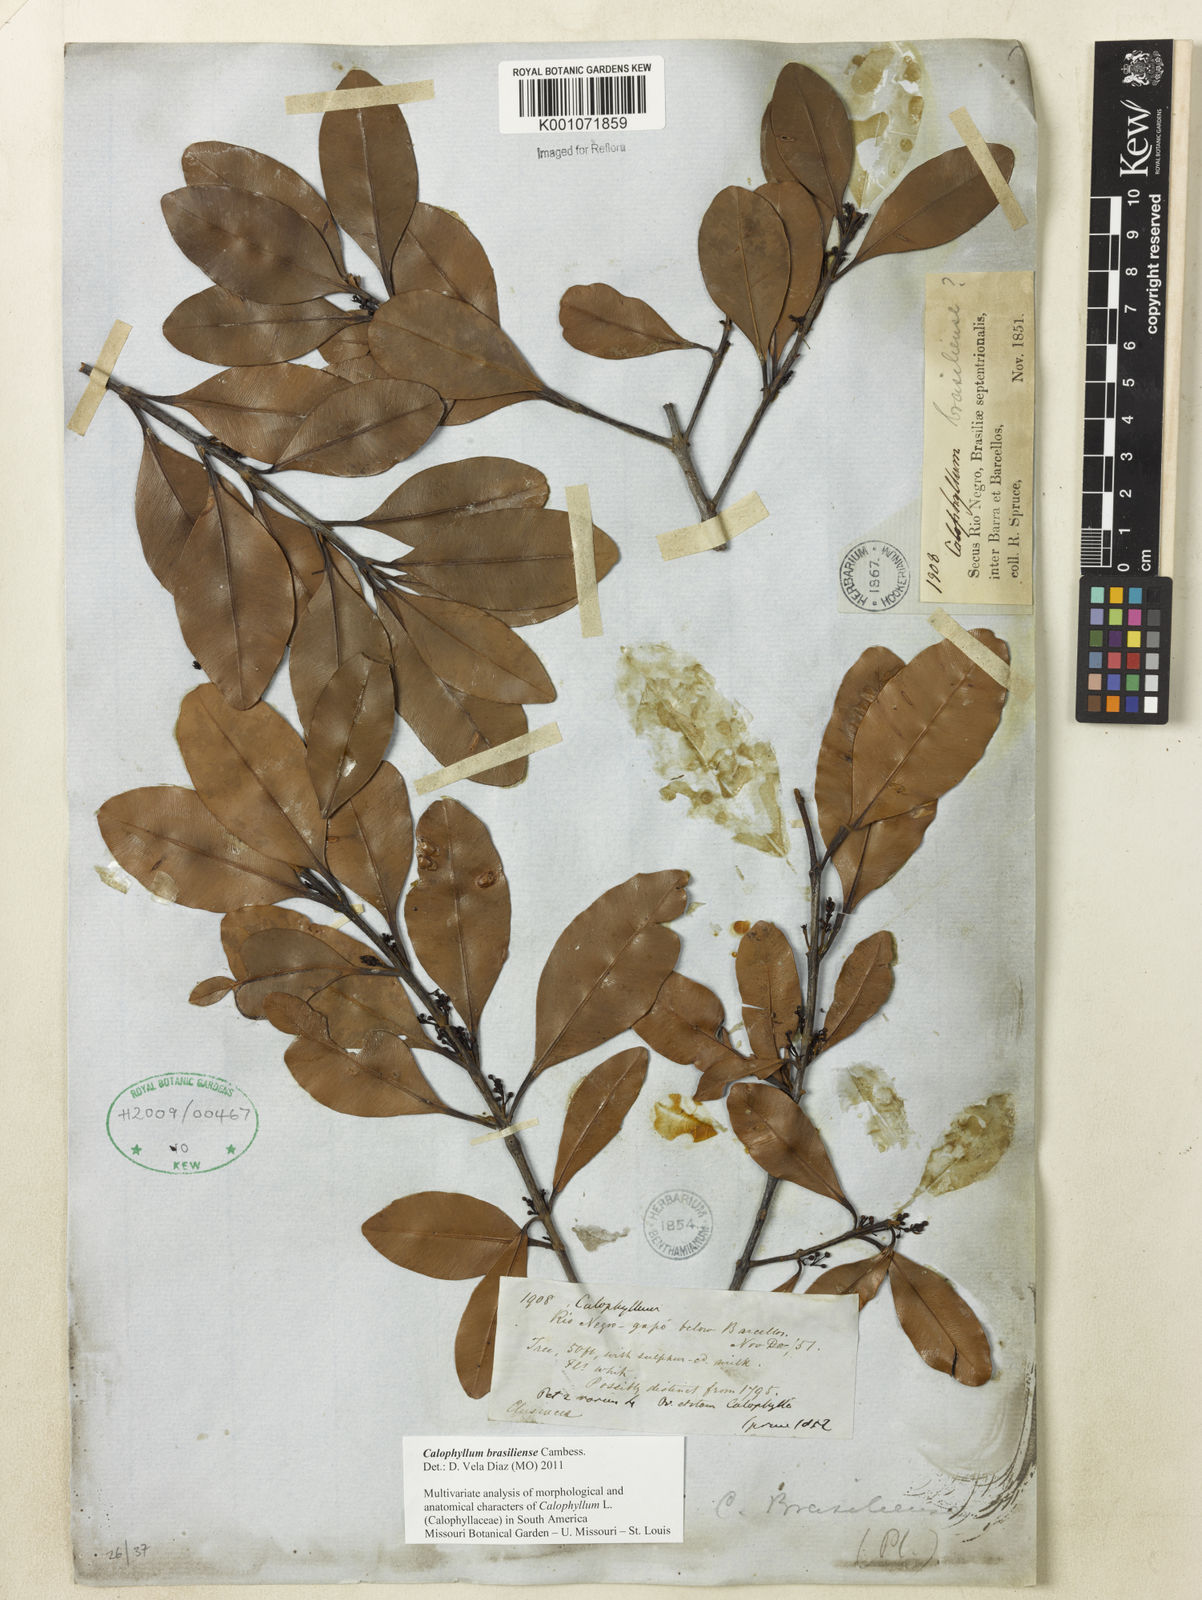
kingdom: Plantae
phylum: Tracheophyta
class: Magnoliopsida
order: Malpighiales
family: Calophyllaceae
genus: Calophyllum
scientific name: Calophyllum brasiliense
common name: Santa maria
